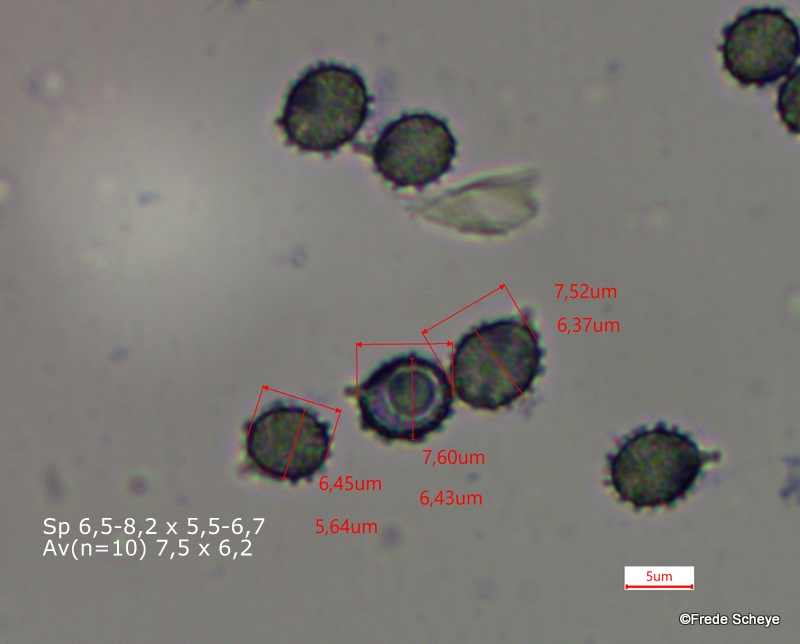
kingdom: Fungi
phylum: Basidiomycota
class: Agaricomycetes
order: Russulales
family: Russulaceae
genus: Russula
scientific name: Russula puellaris
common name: gulstokket skørhat
